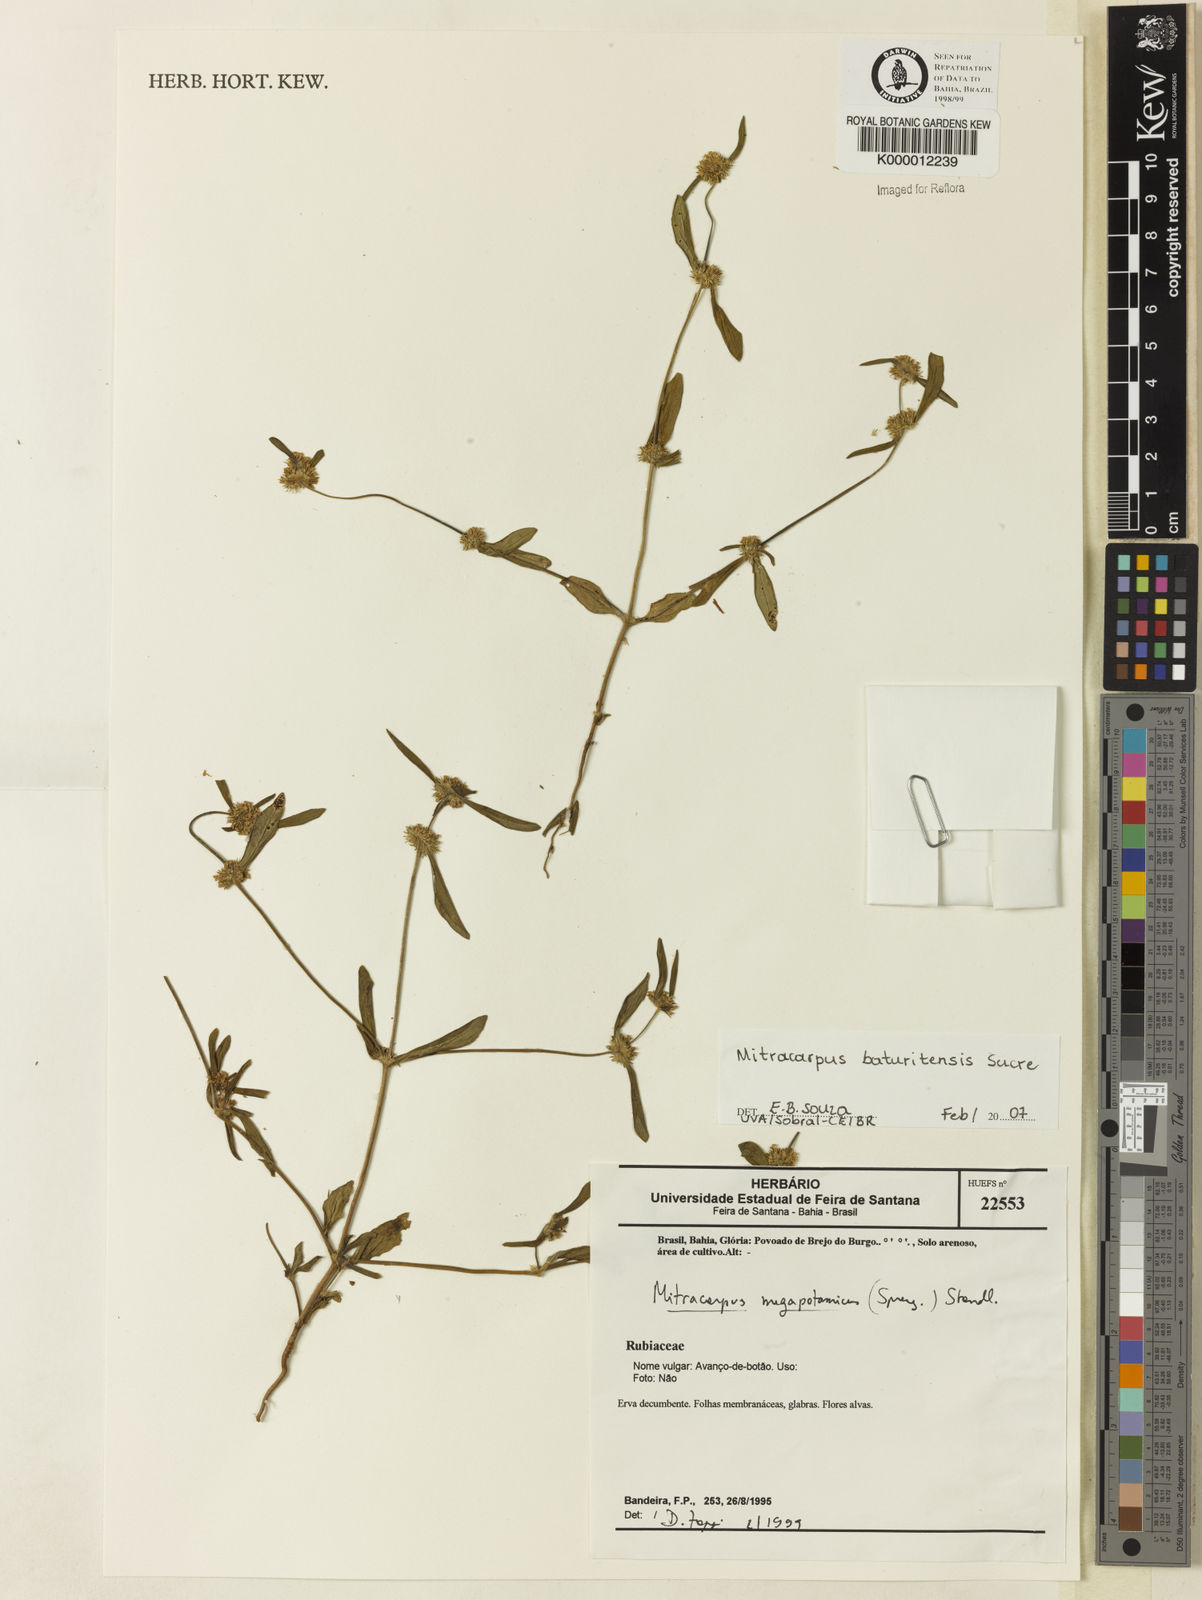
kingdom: Plantae
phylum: Tracheophyta
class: Magnoliopsida
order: Gentianales
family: Rubiaceae
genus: Mitracarpus
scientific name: Mitracarpus baturitensis
